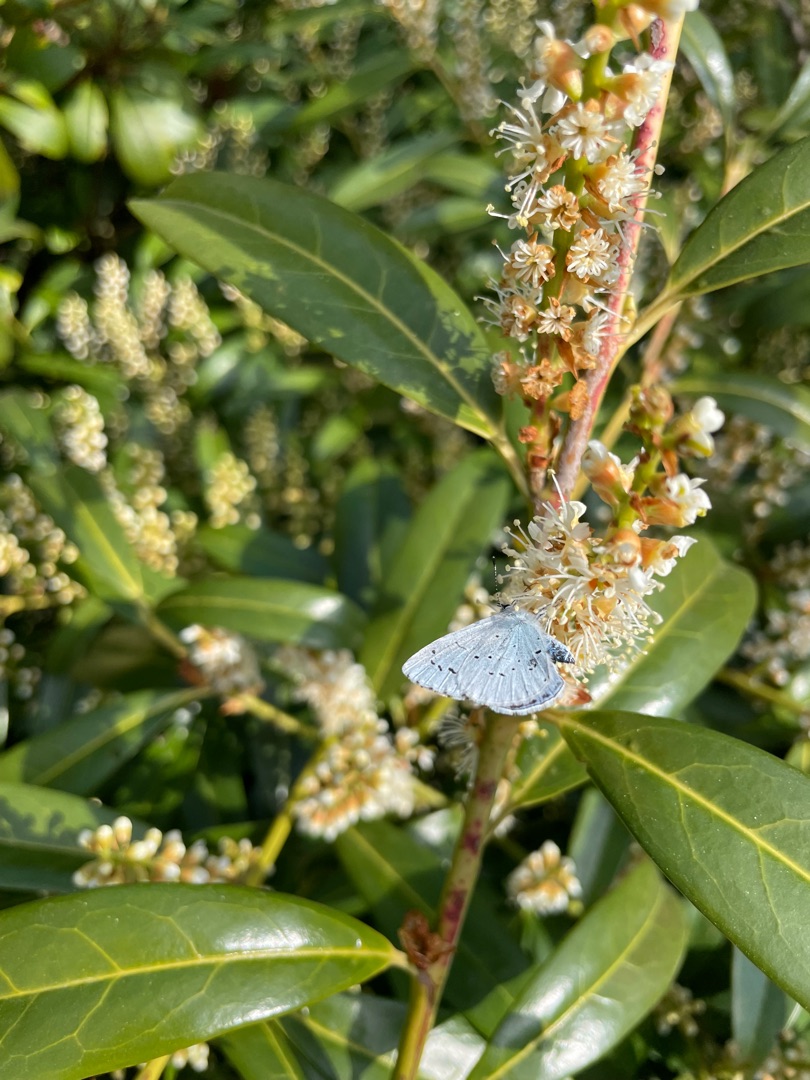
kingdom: Animalia
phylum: Arthropoda
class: Insecta
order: Lepidoptera
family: Lycaenidae
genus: Celastrina
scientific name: Celastrina argiolus
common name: Skovblåfugl
